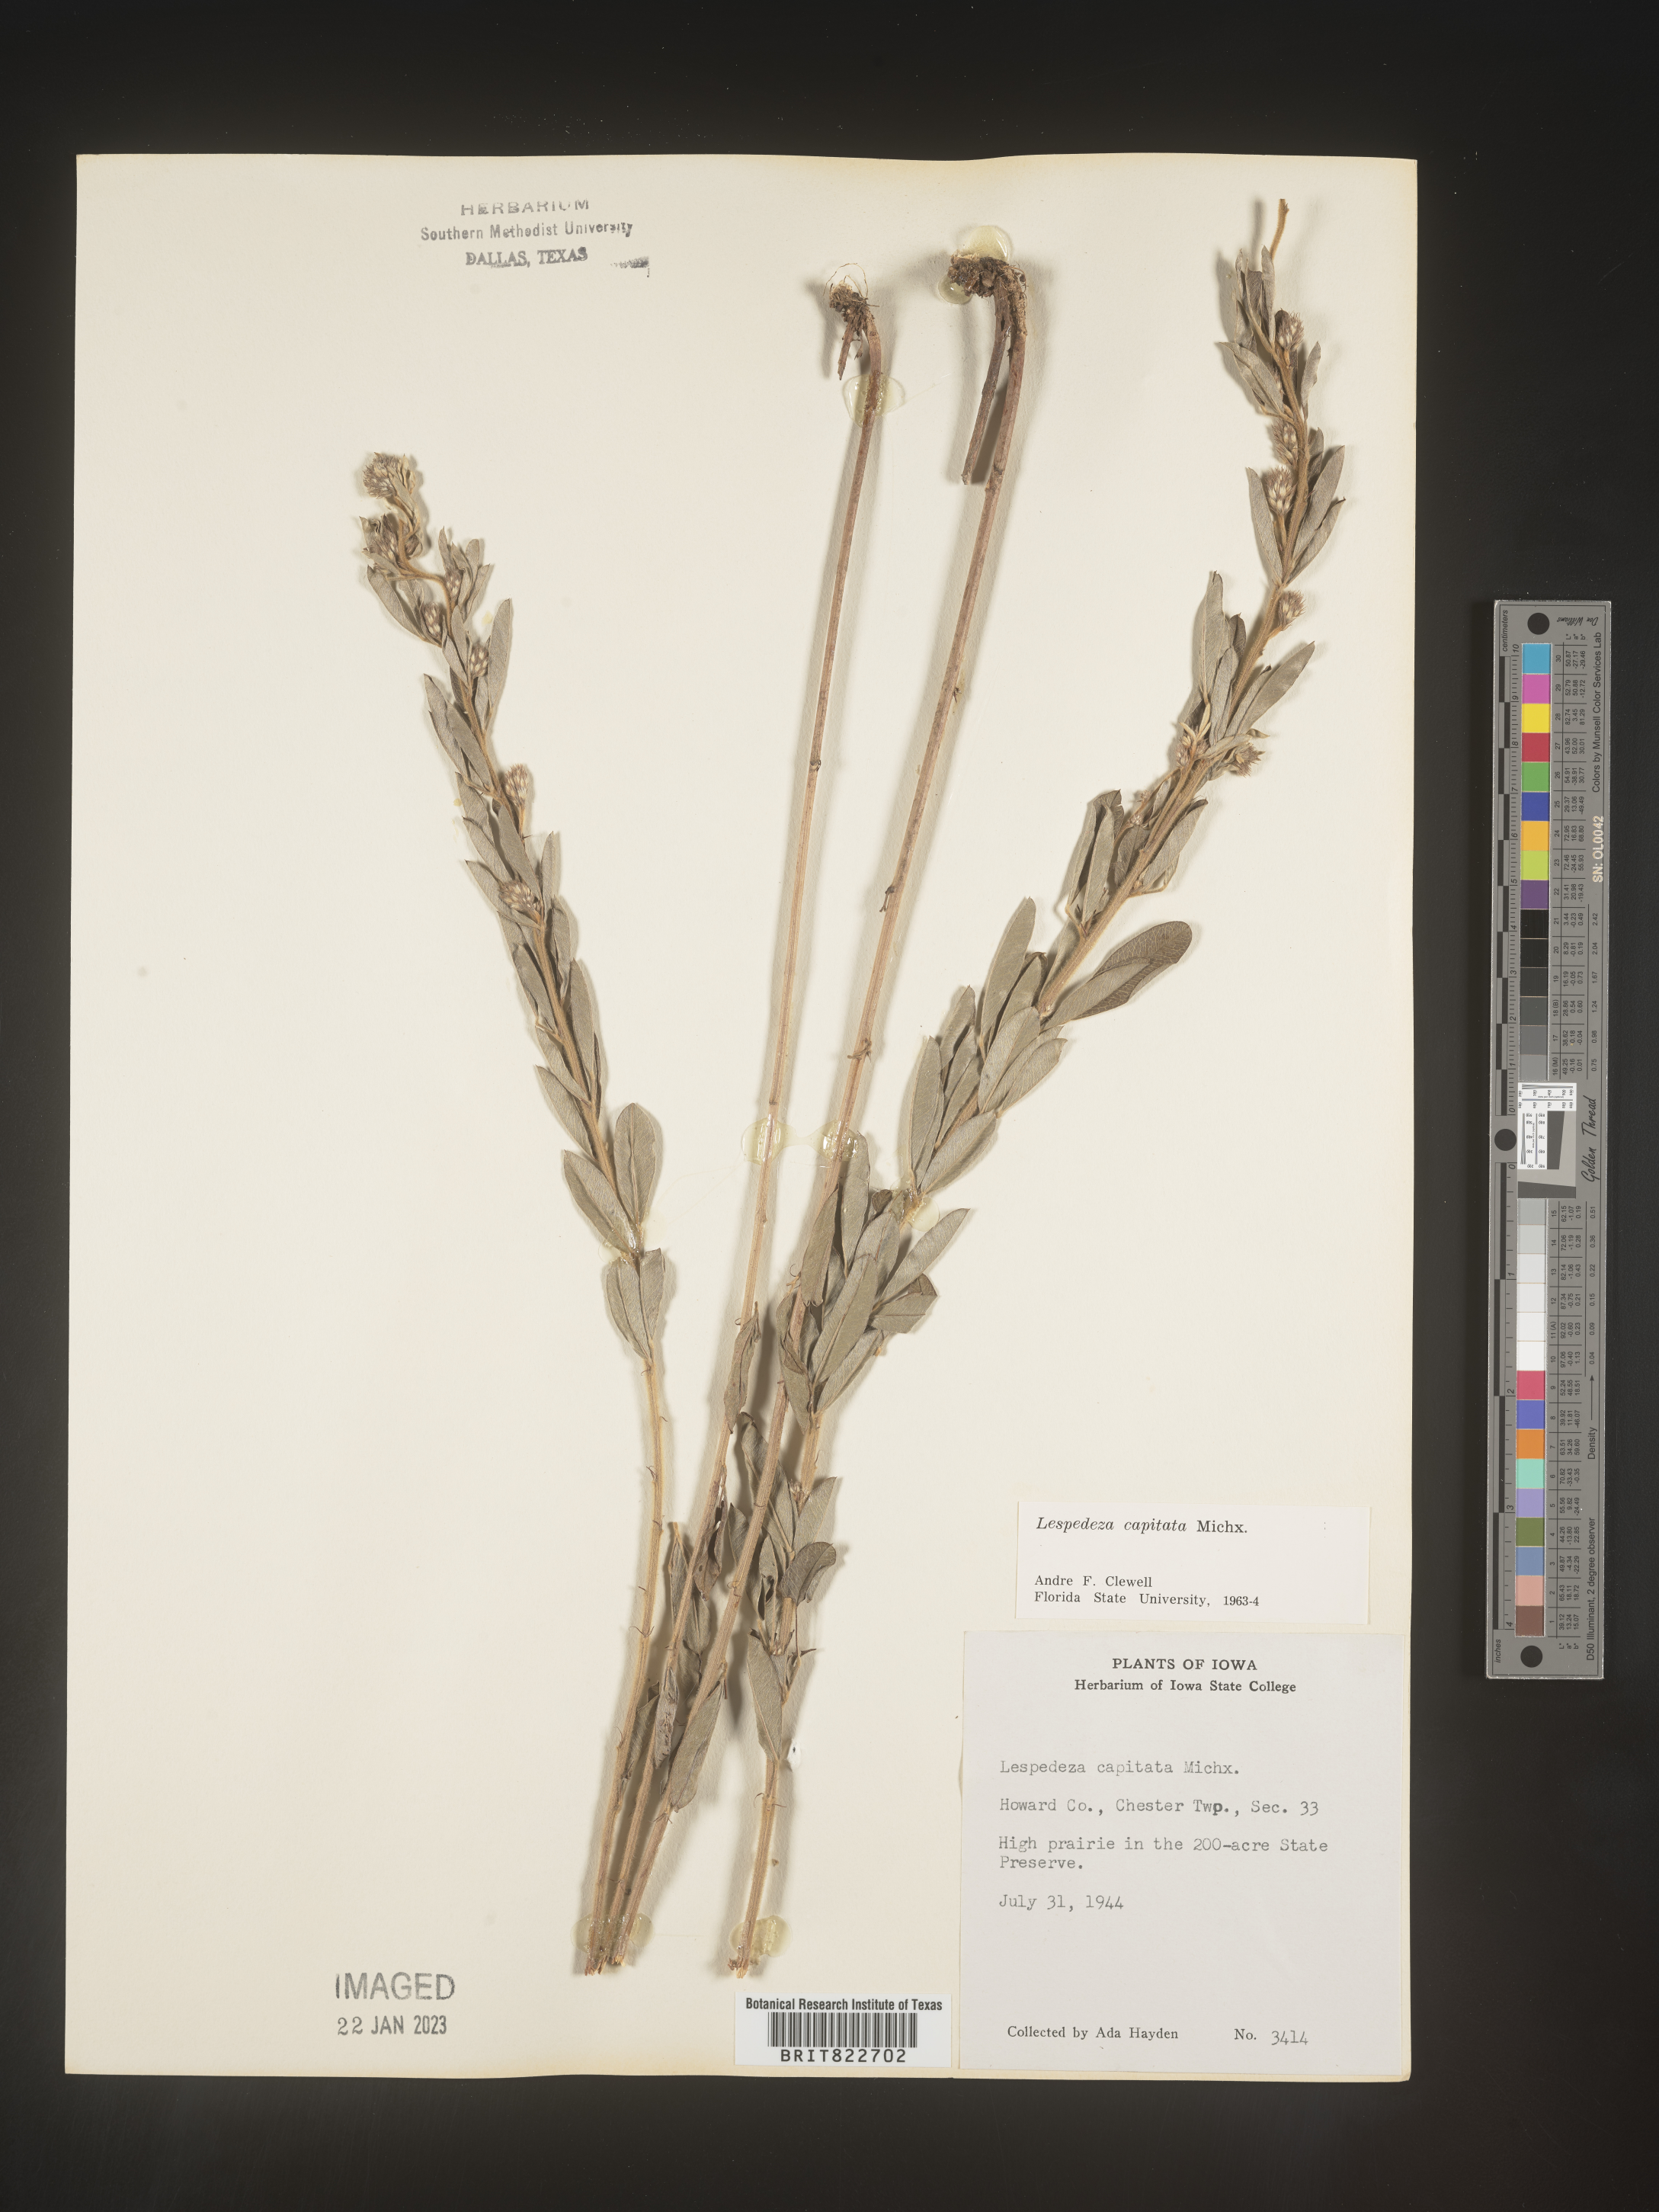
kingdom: Plantae
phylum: Tracheophyta
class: Magnoliopsida
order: Fabales
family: Fabaceae
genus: Lespedeza
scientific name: Lespedeza capitata
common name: Dusty clover
